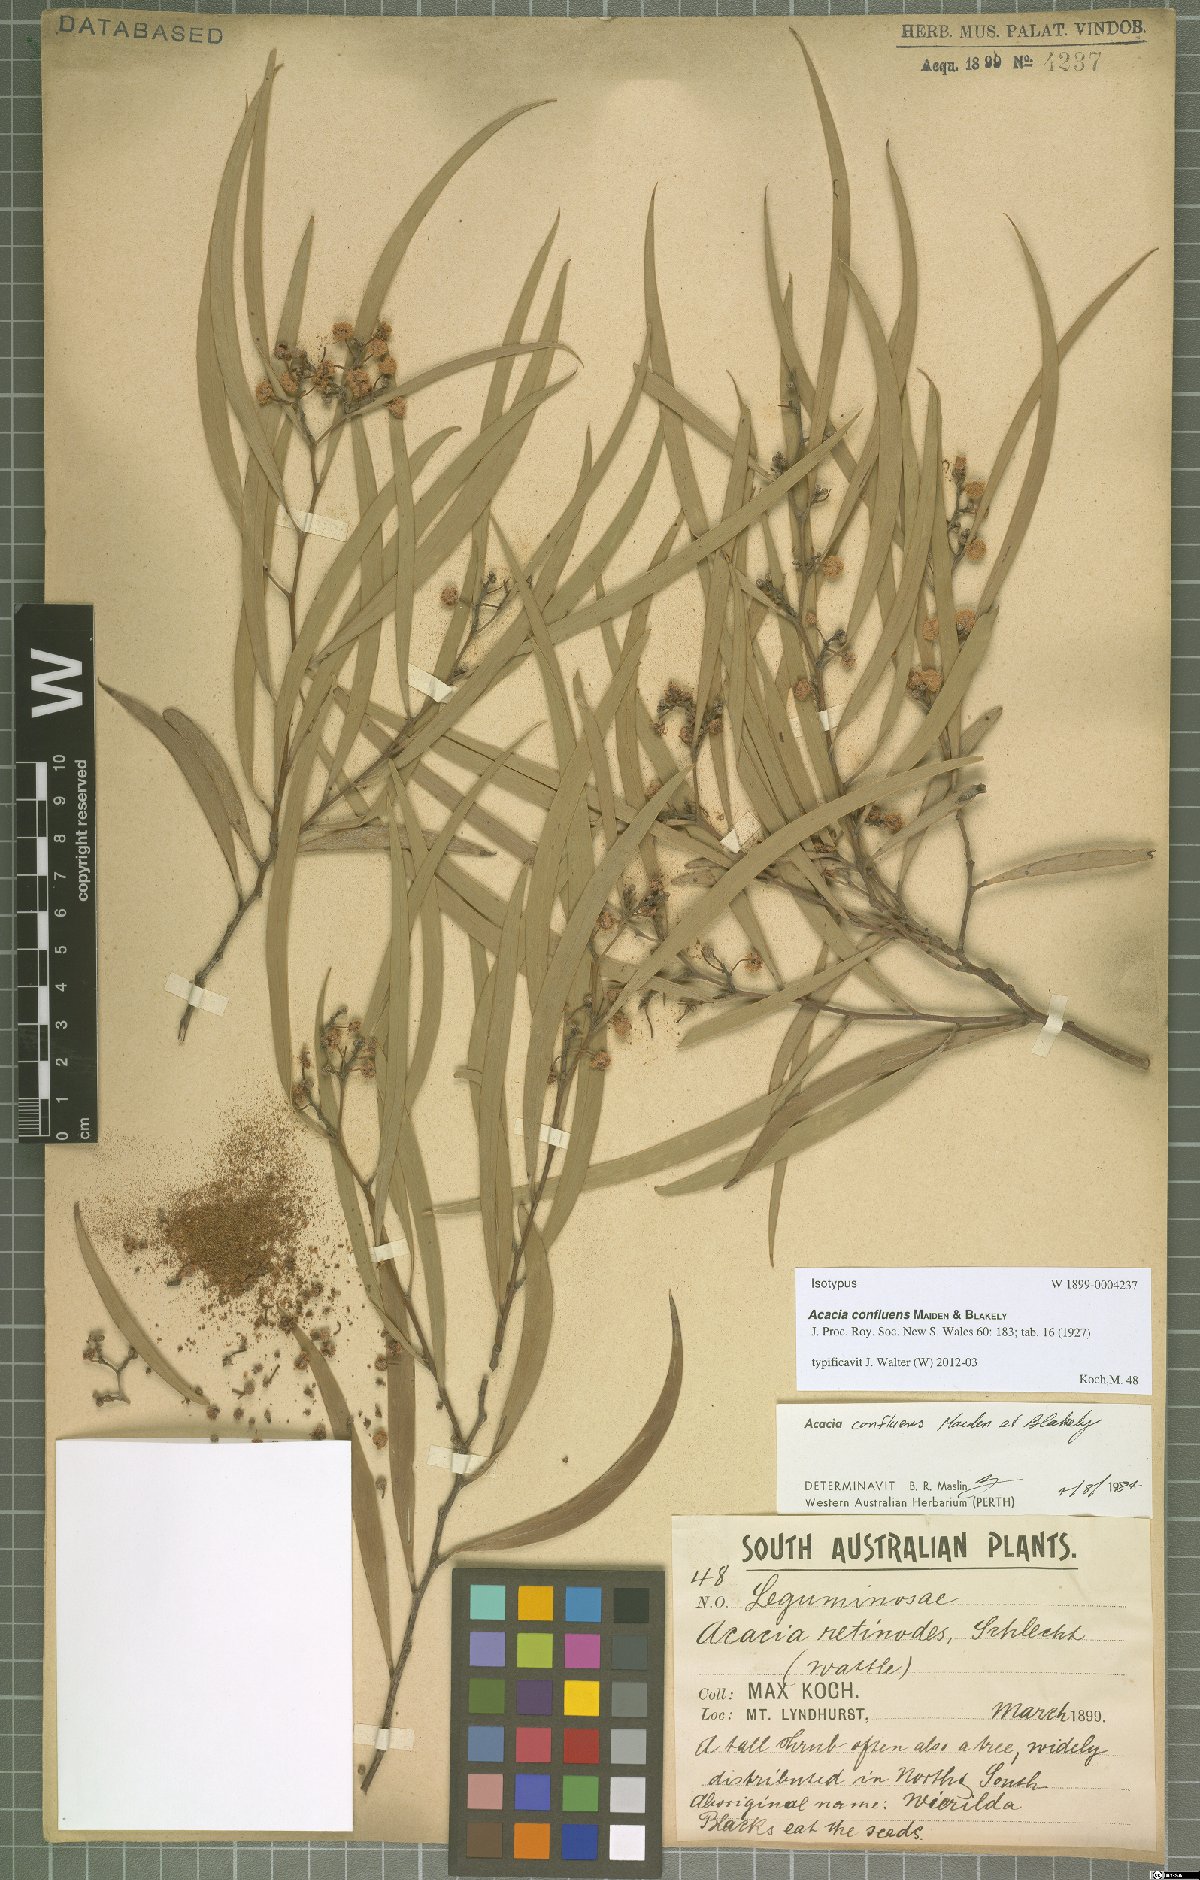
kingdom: Plantae
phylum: Tracheophyta
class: Magnoliopsida
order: Fabales
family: Fabaceae
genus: Acacia
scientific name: Acacia confluens
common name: Arkaroola wattle
